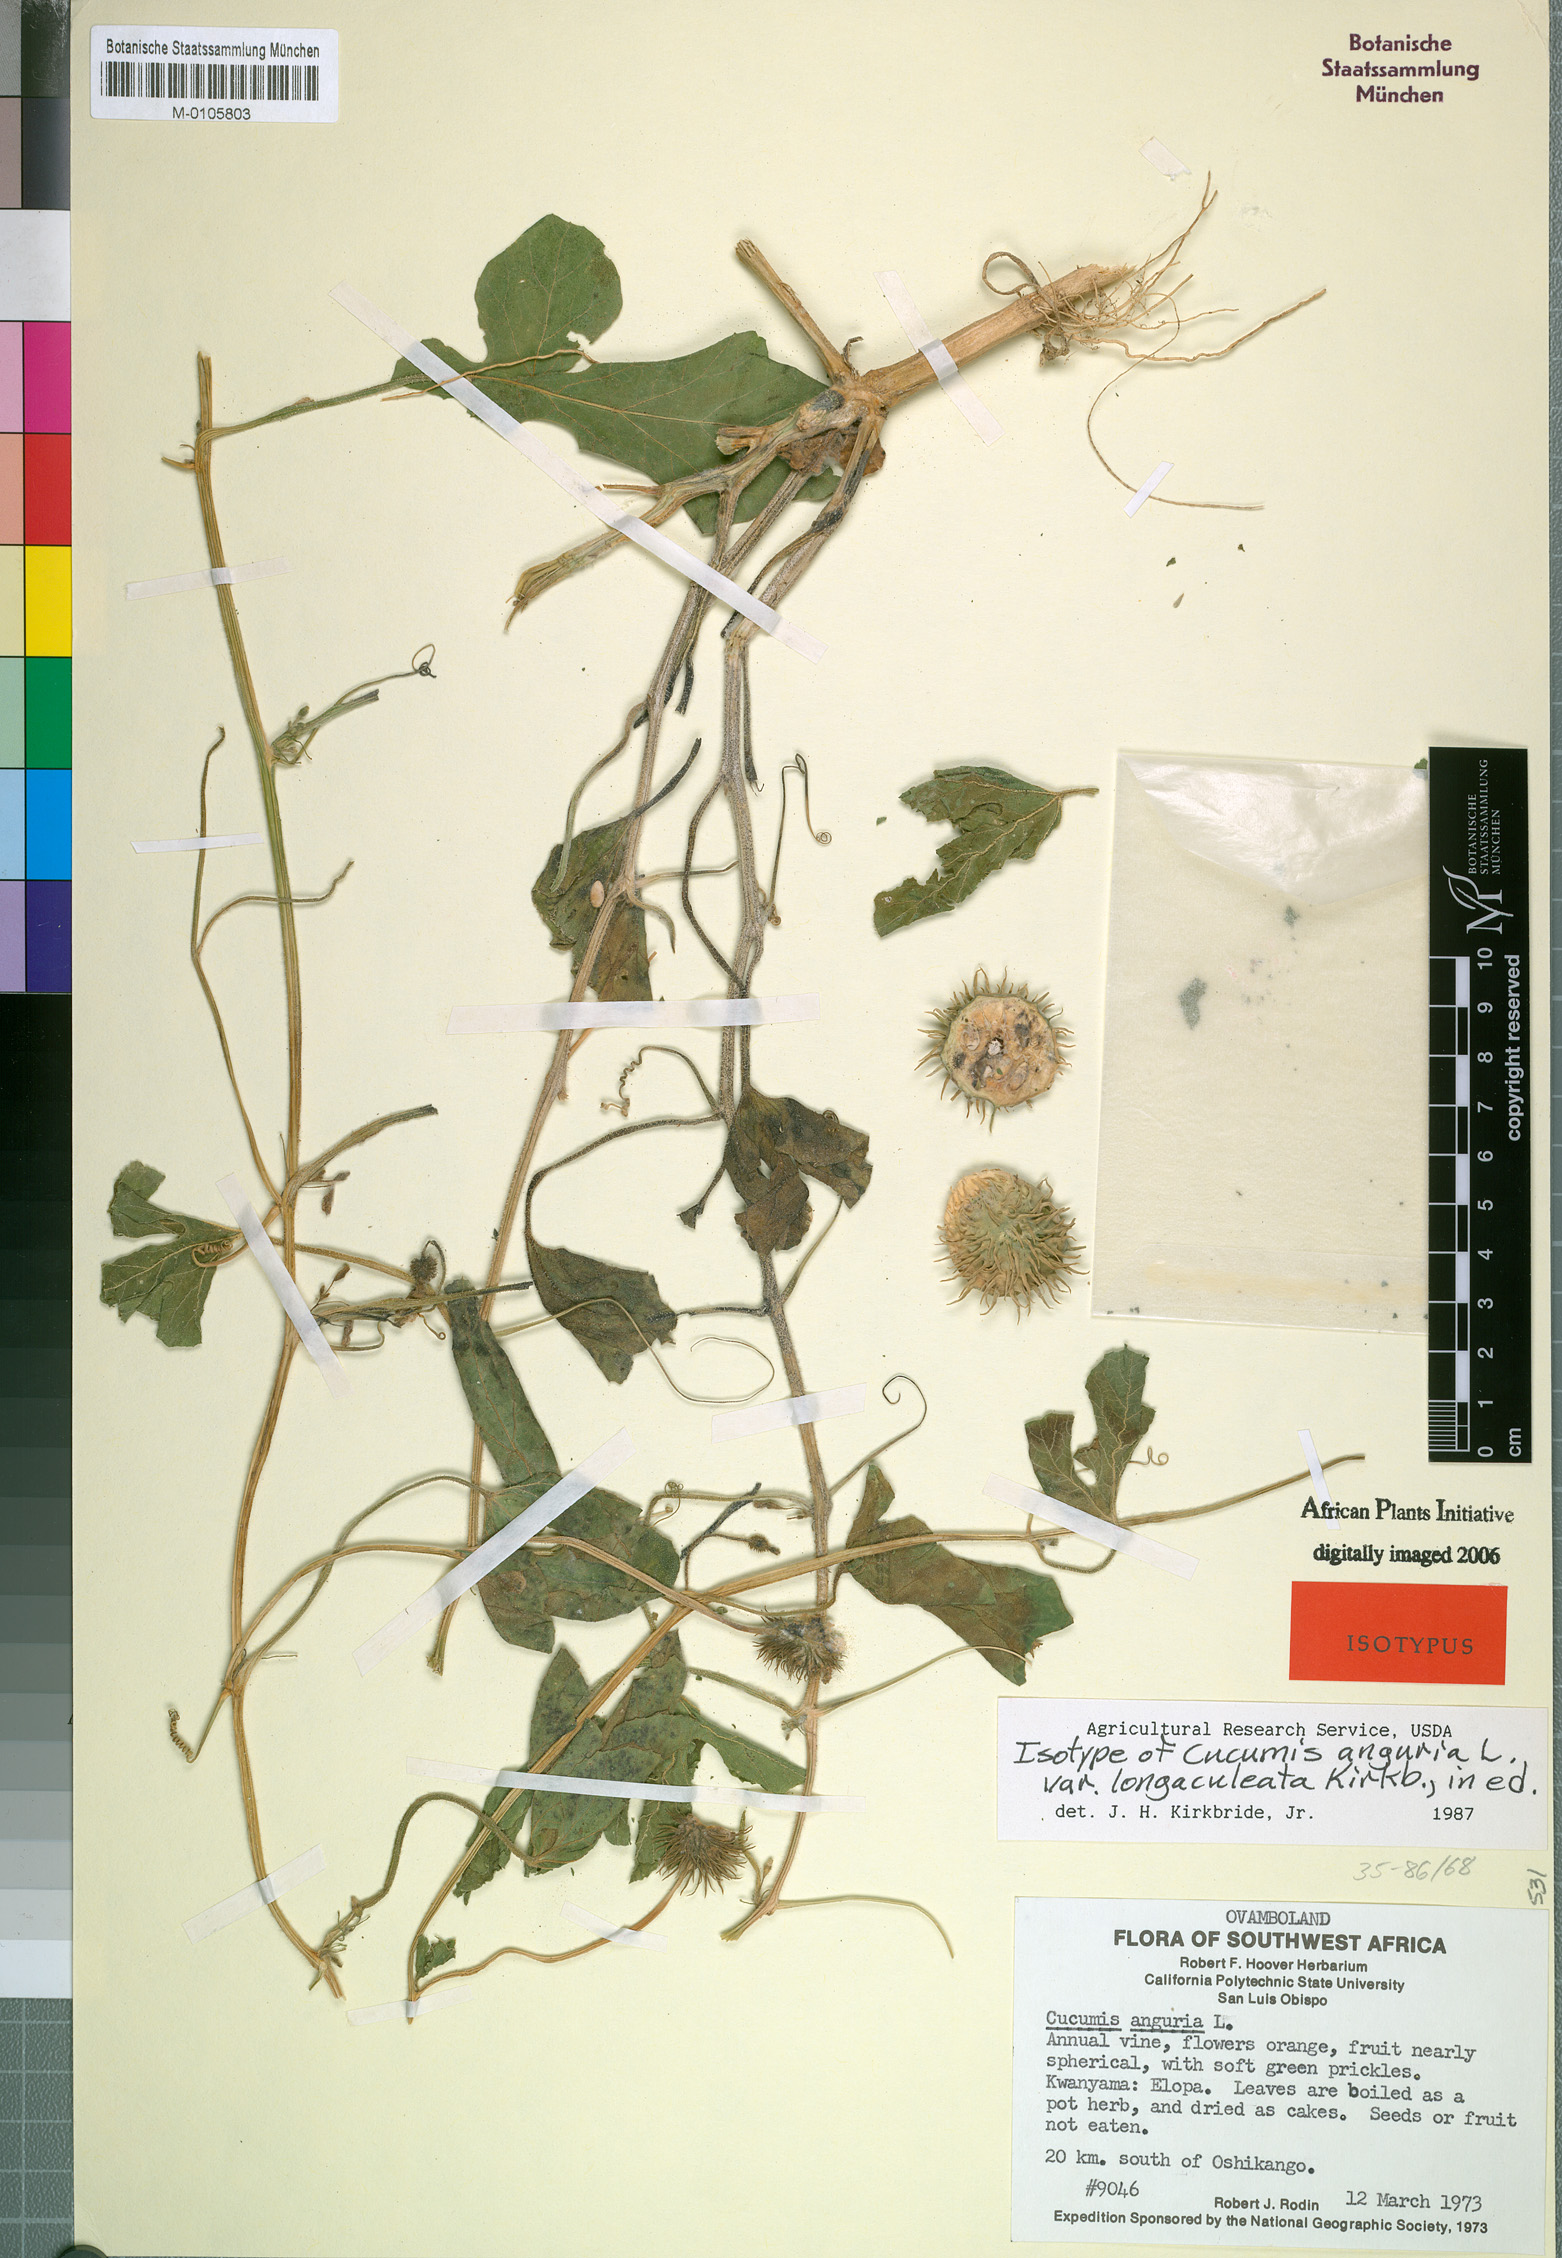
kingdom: Plantae
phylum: Tracheophyta
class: Magnoliopsida
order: Cucurbitales
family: Cucurbitaceae
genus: Cucumis
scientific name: Cucumis anguria
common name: West indian gherkin
